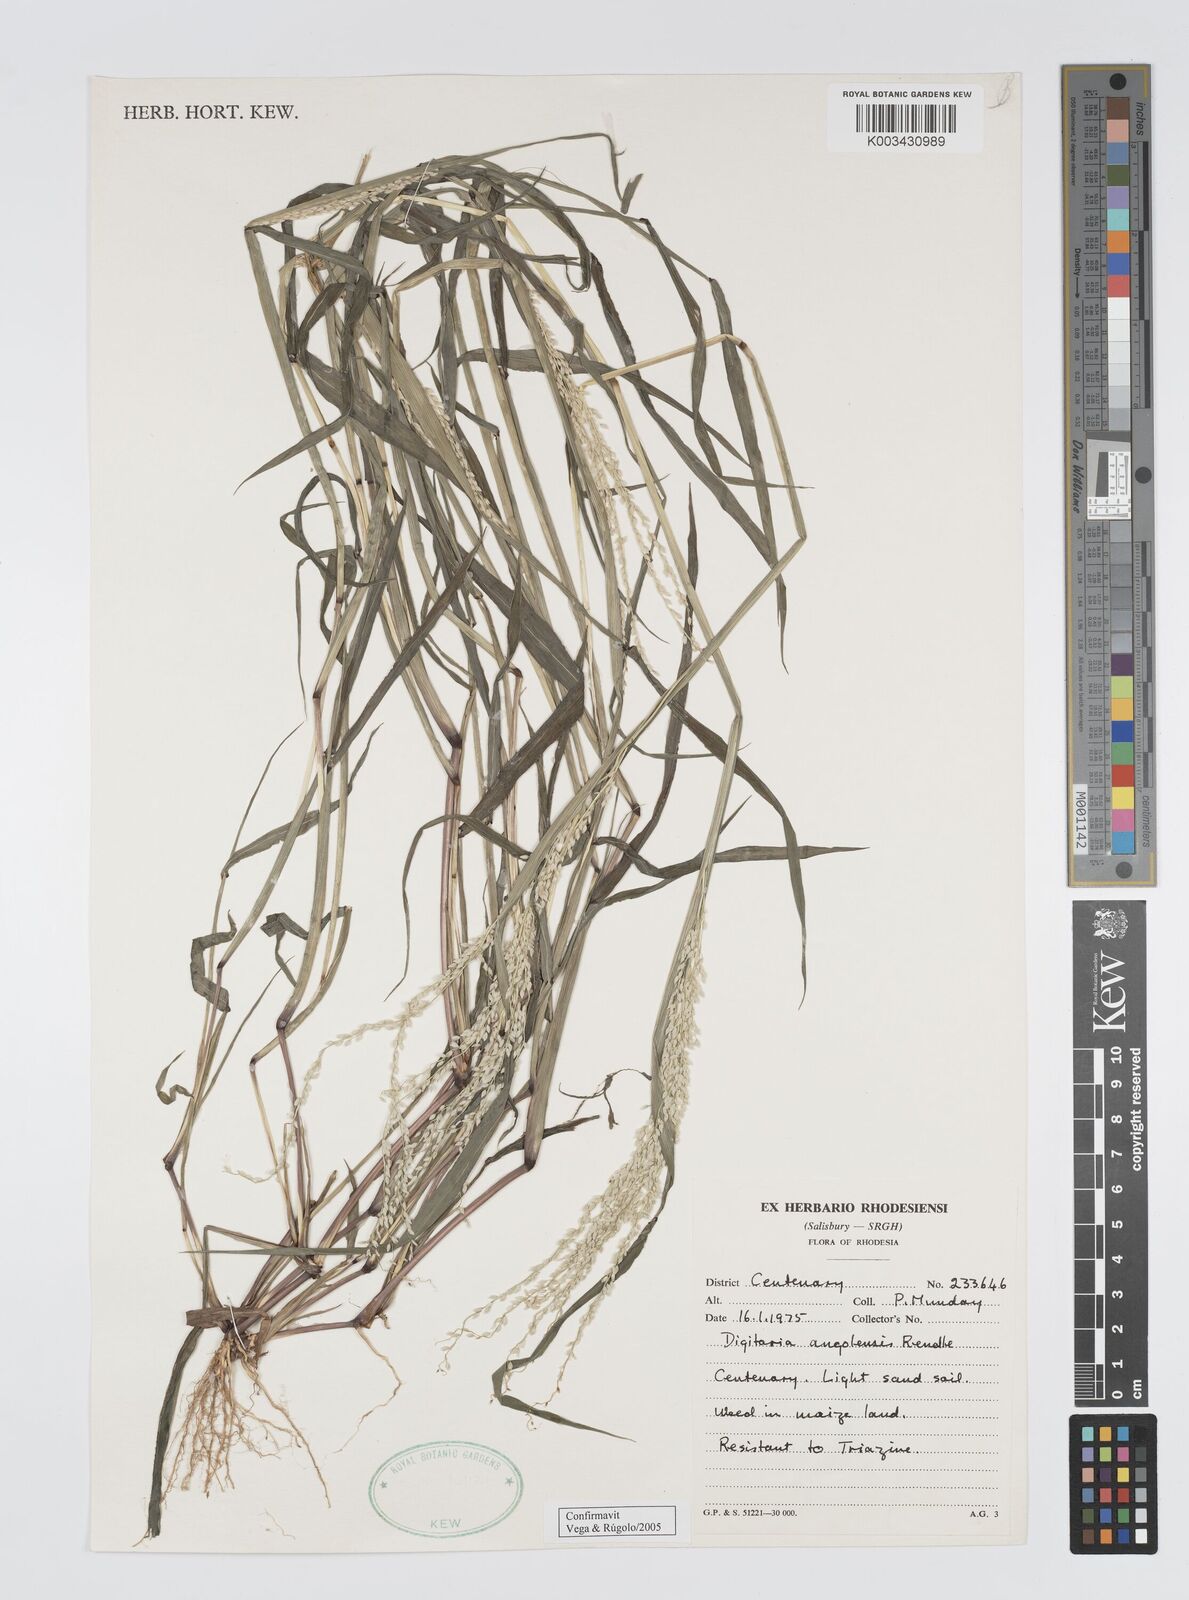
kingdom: Plantae
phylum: Tracheophyta
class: Liliopsida
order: Poales
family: Poaceae
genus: Digitaria
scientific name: Digitaria angolensis
